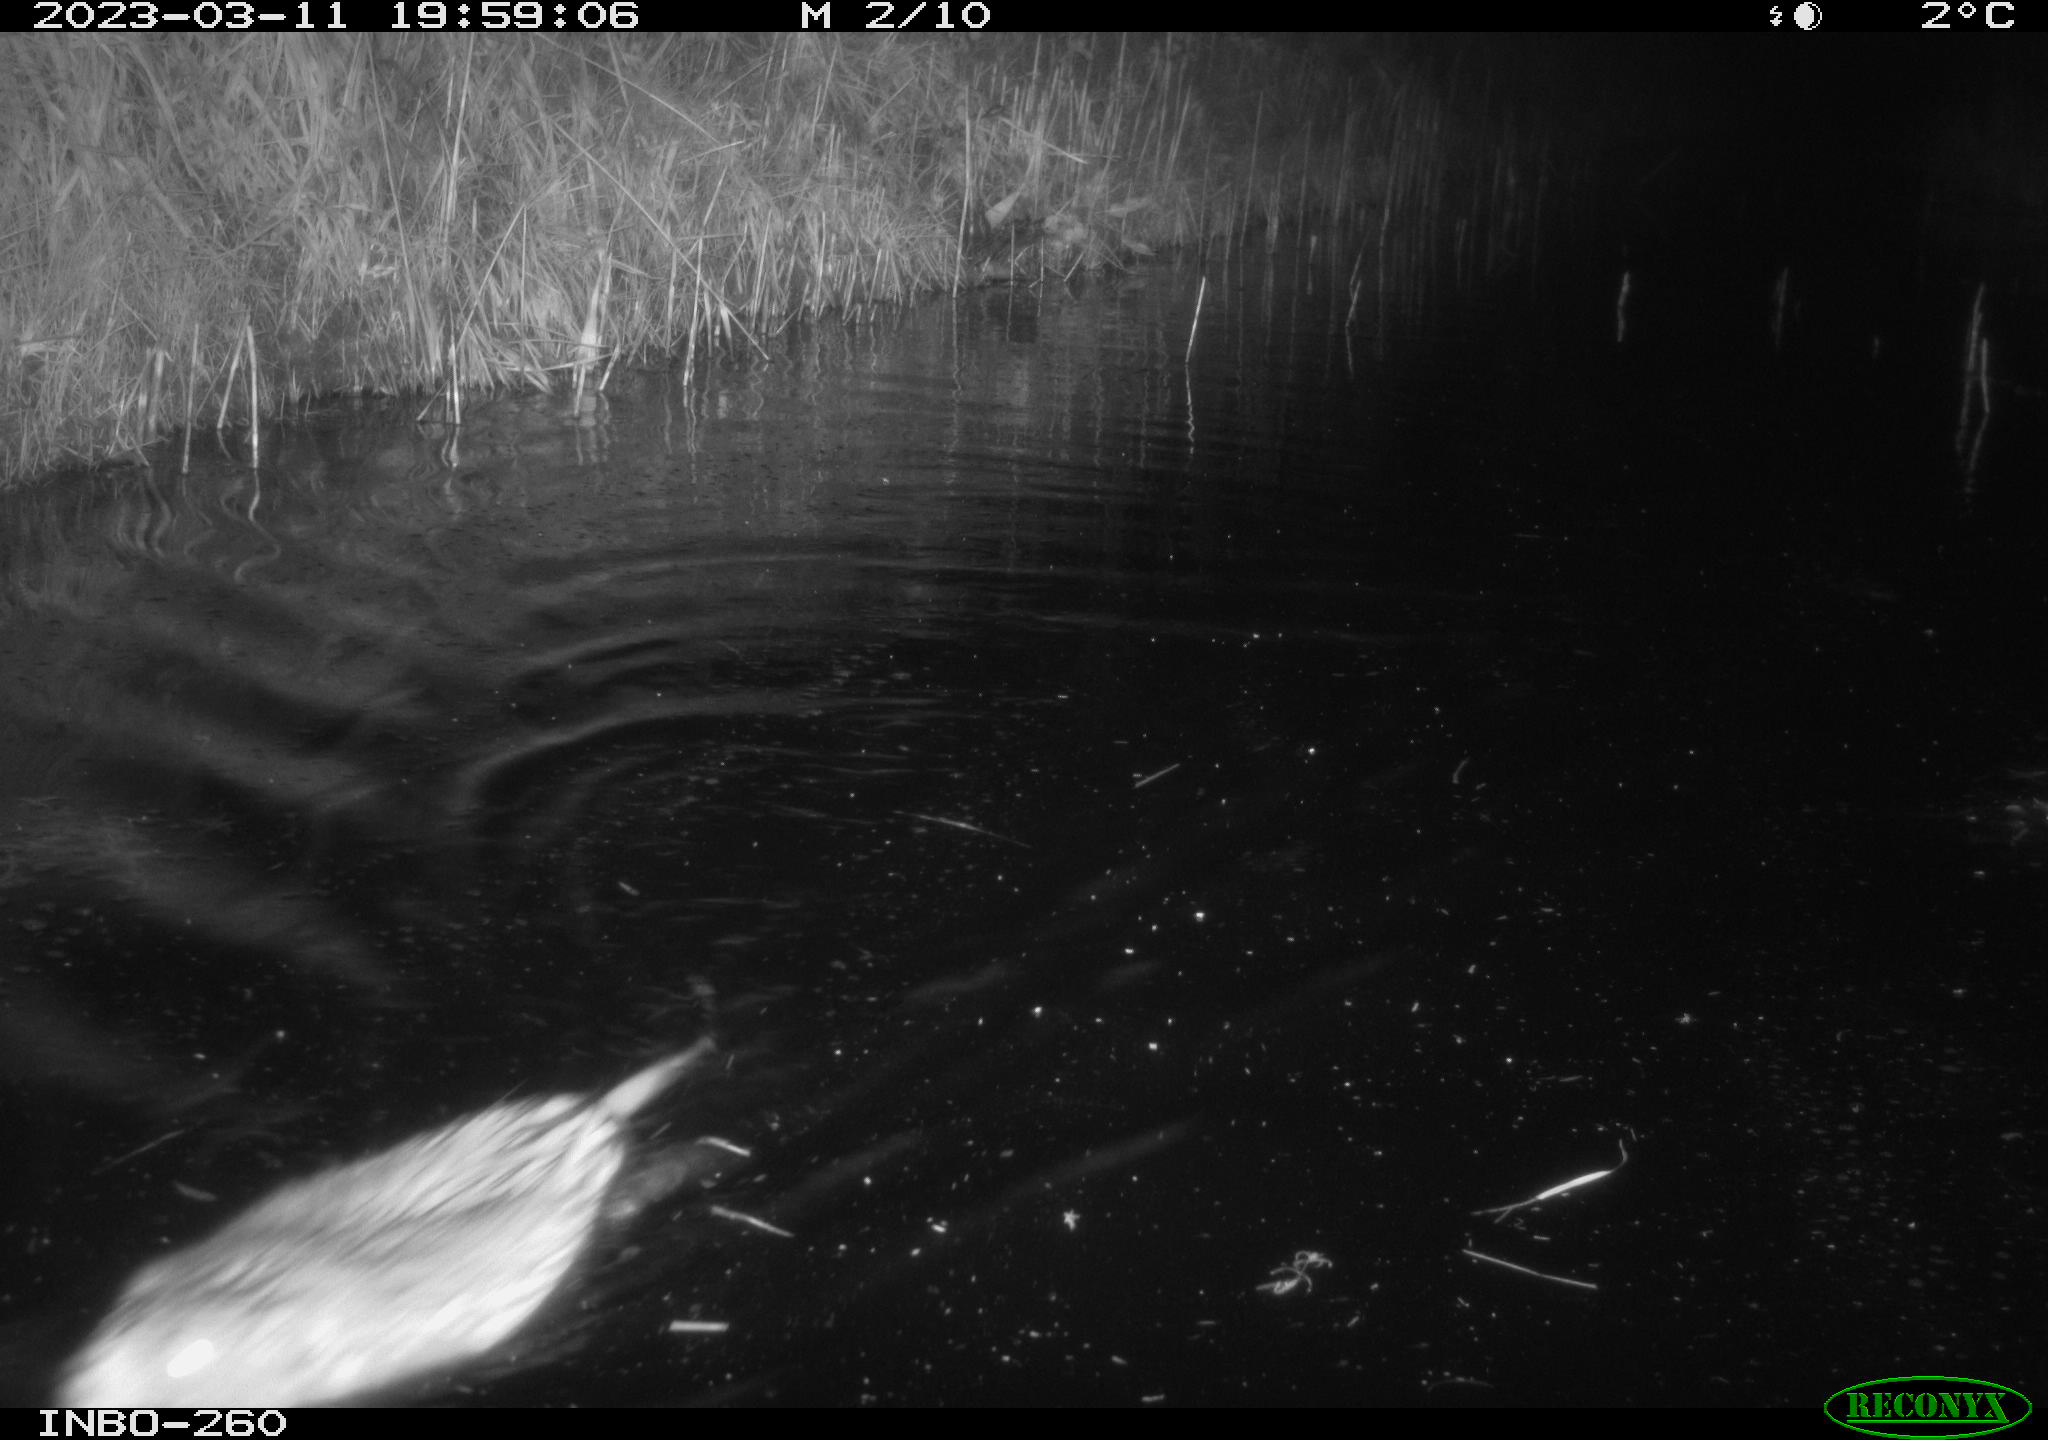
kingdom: Animalia
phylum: Chordata
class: Mammalia
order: Rodentia
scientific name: Rodentia
